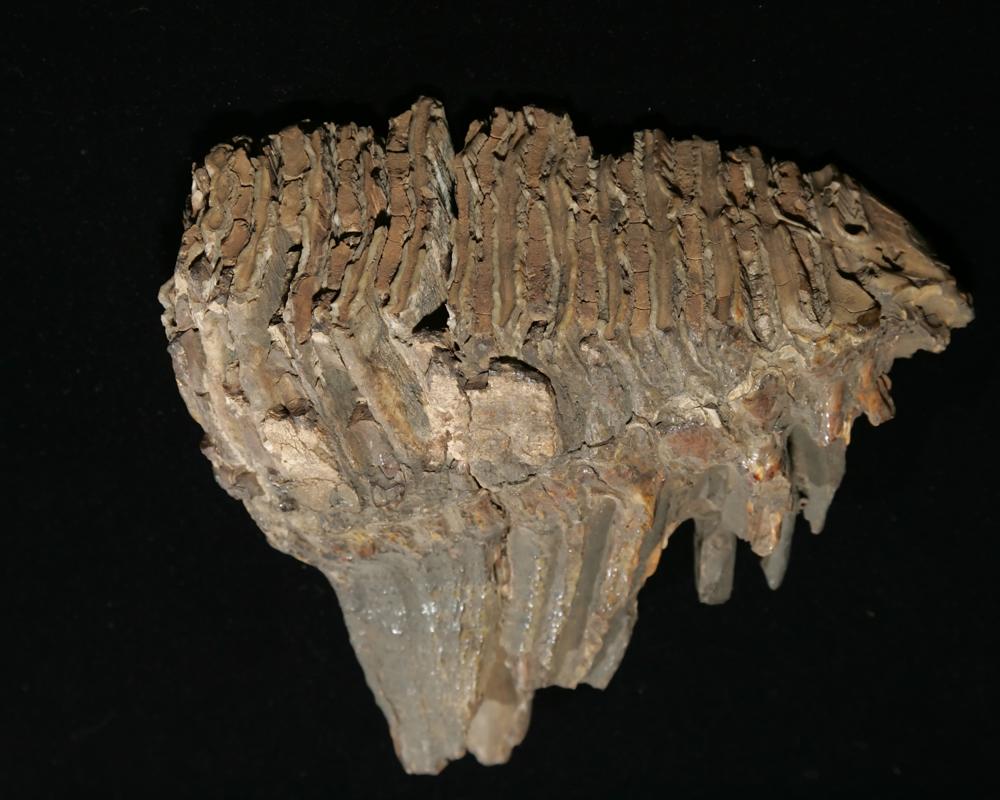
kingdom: Animalia
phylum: Chordata
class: Mammalia
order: Proboscidea
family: Elephantidae
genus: Mammuthus
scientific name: Mammuthus primigenius
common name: Wooly mammoth
